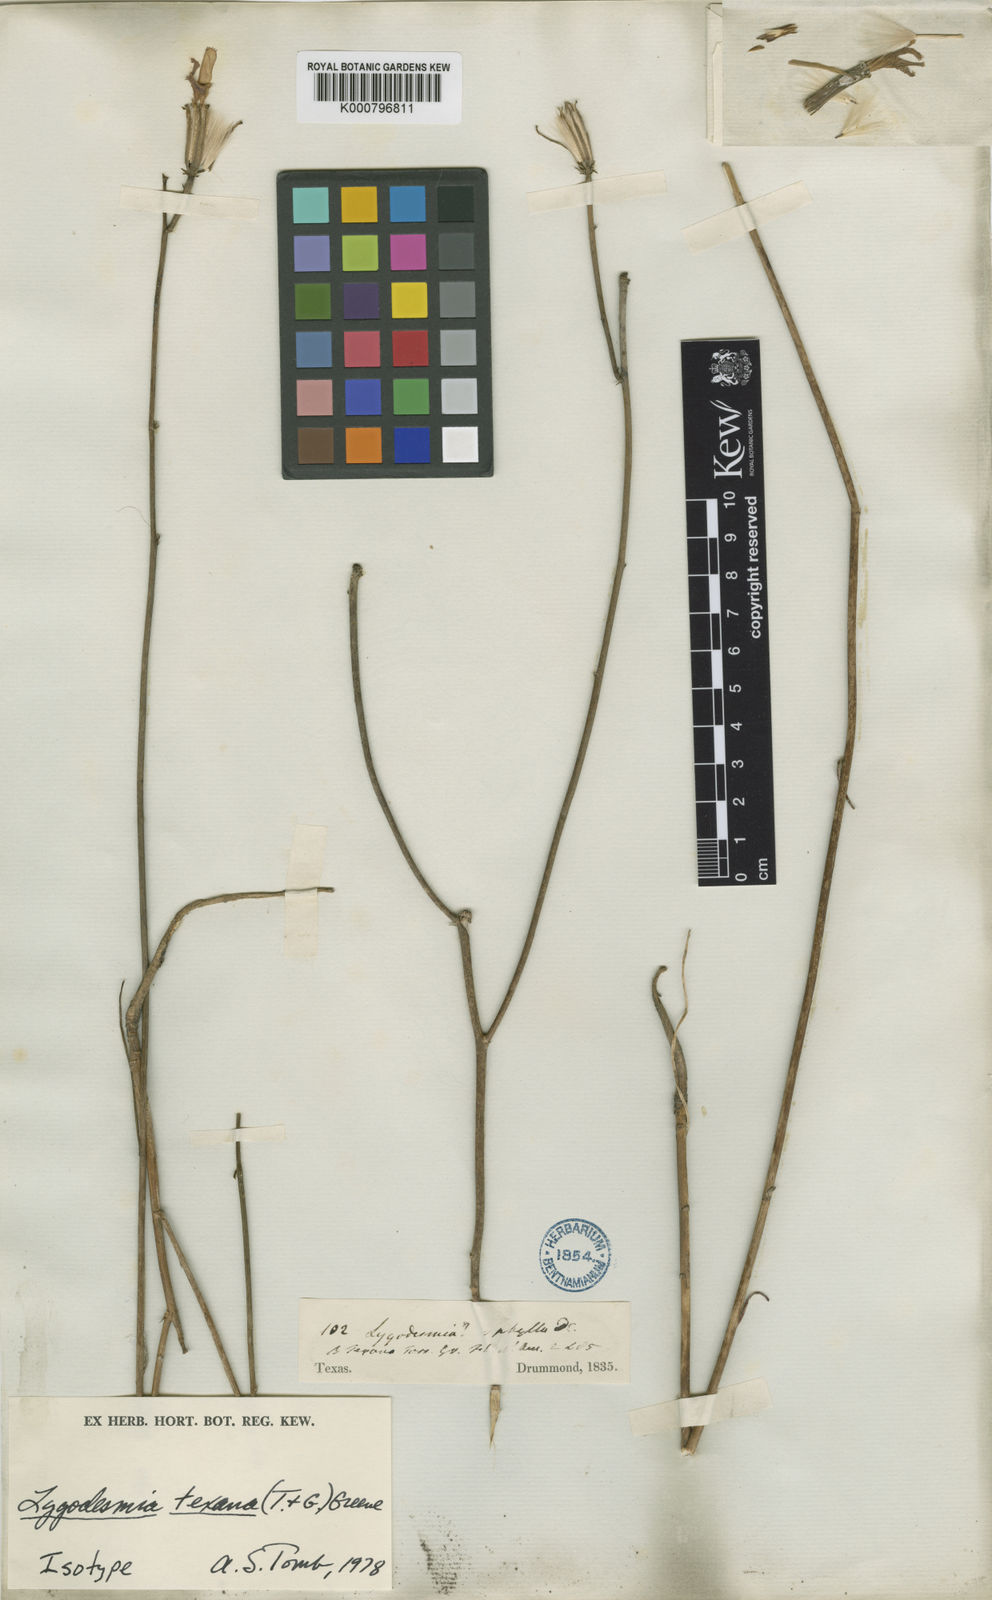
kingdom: Plantae
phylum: Tracheophyta
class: Magnoliopsida
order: Asterales
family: Asteraceae
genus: Lygodesmia
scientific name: Lygodesmia texana
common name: Texas skeleton-plant
